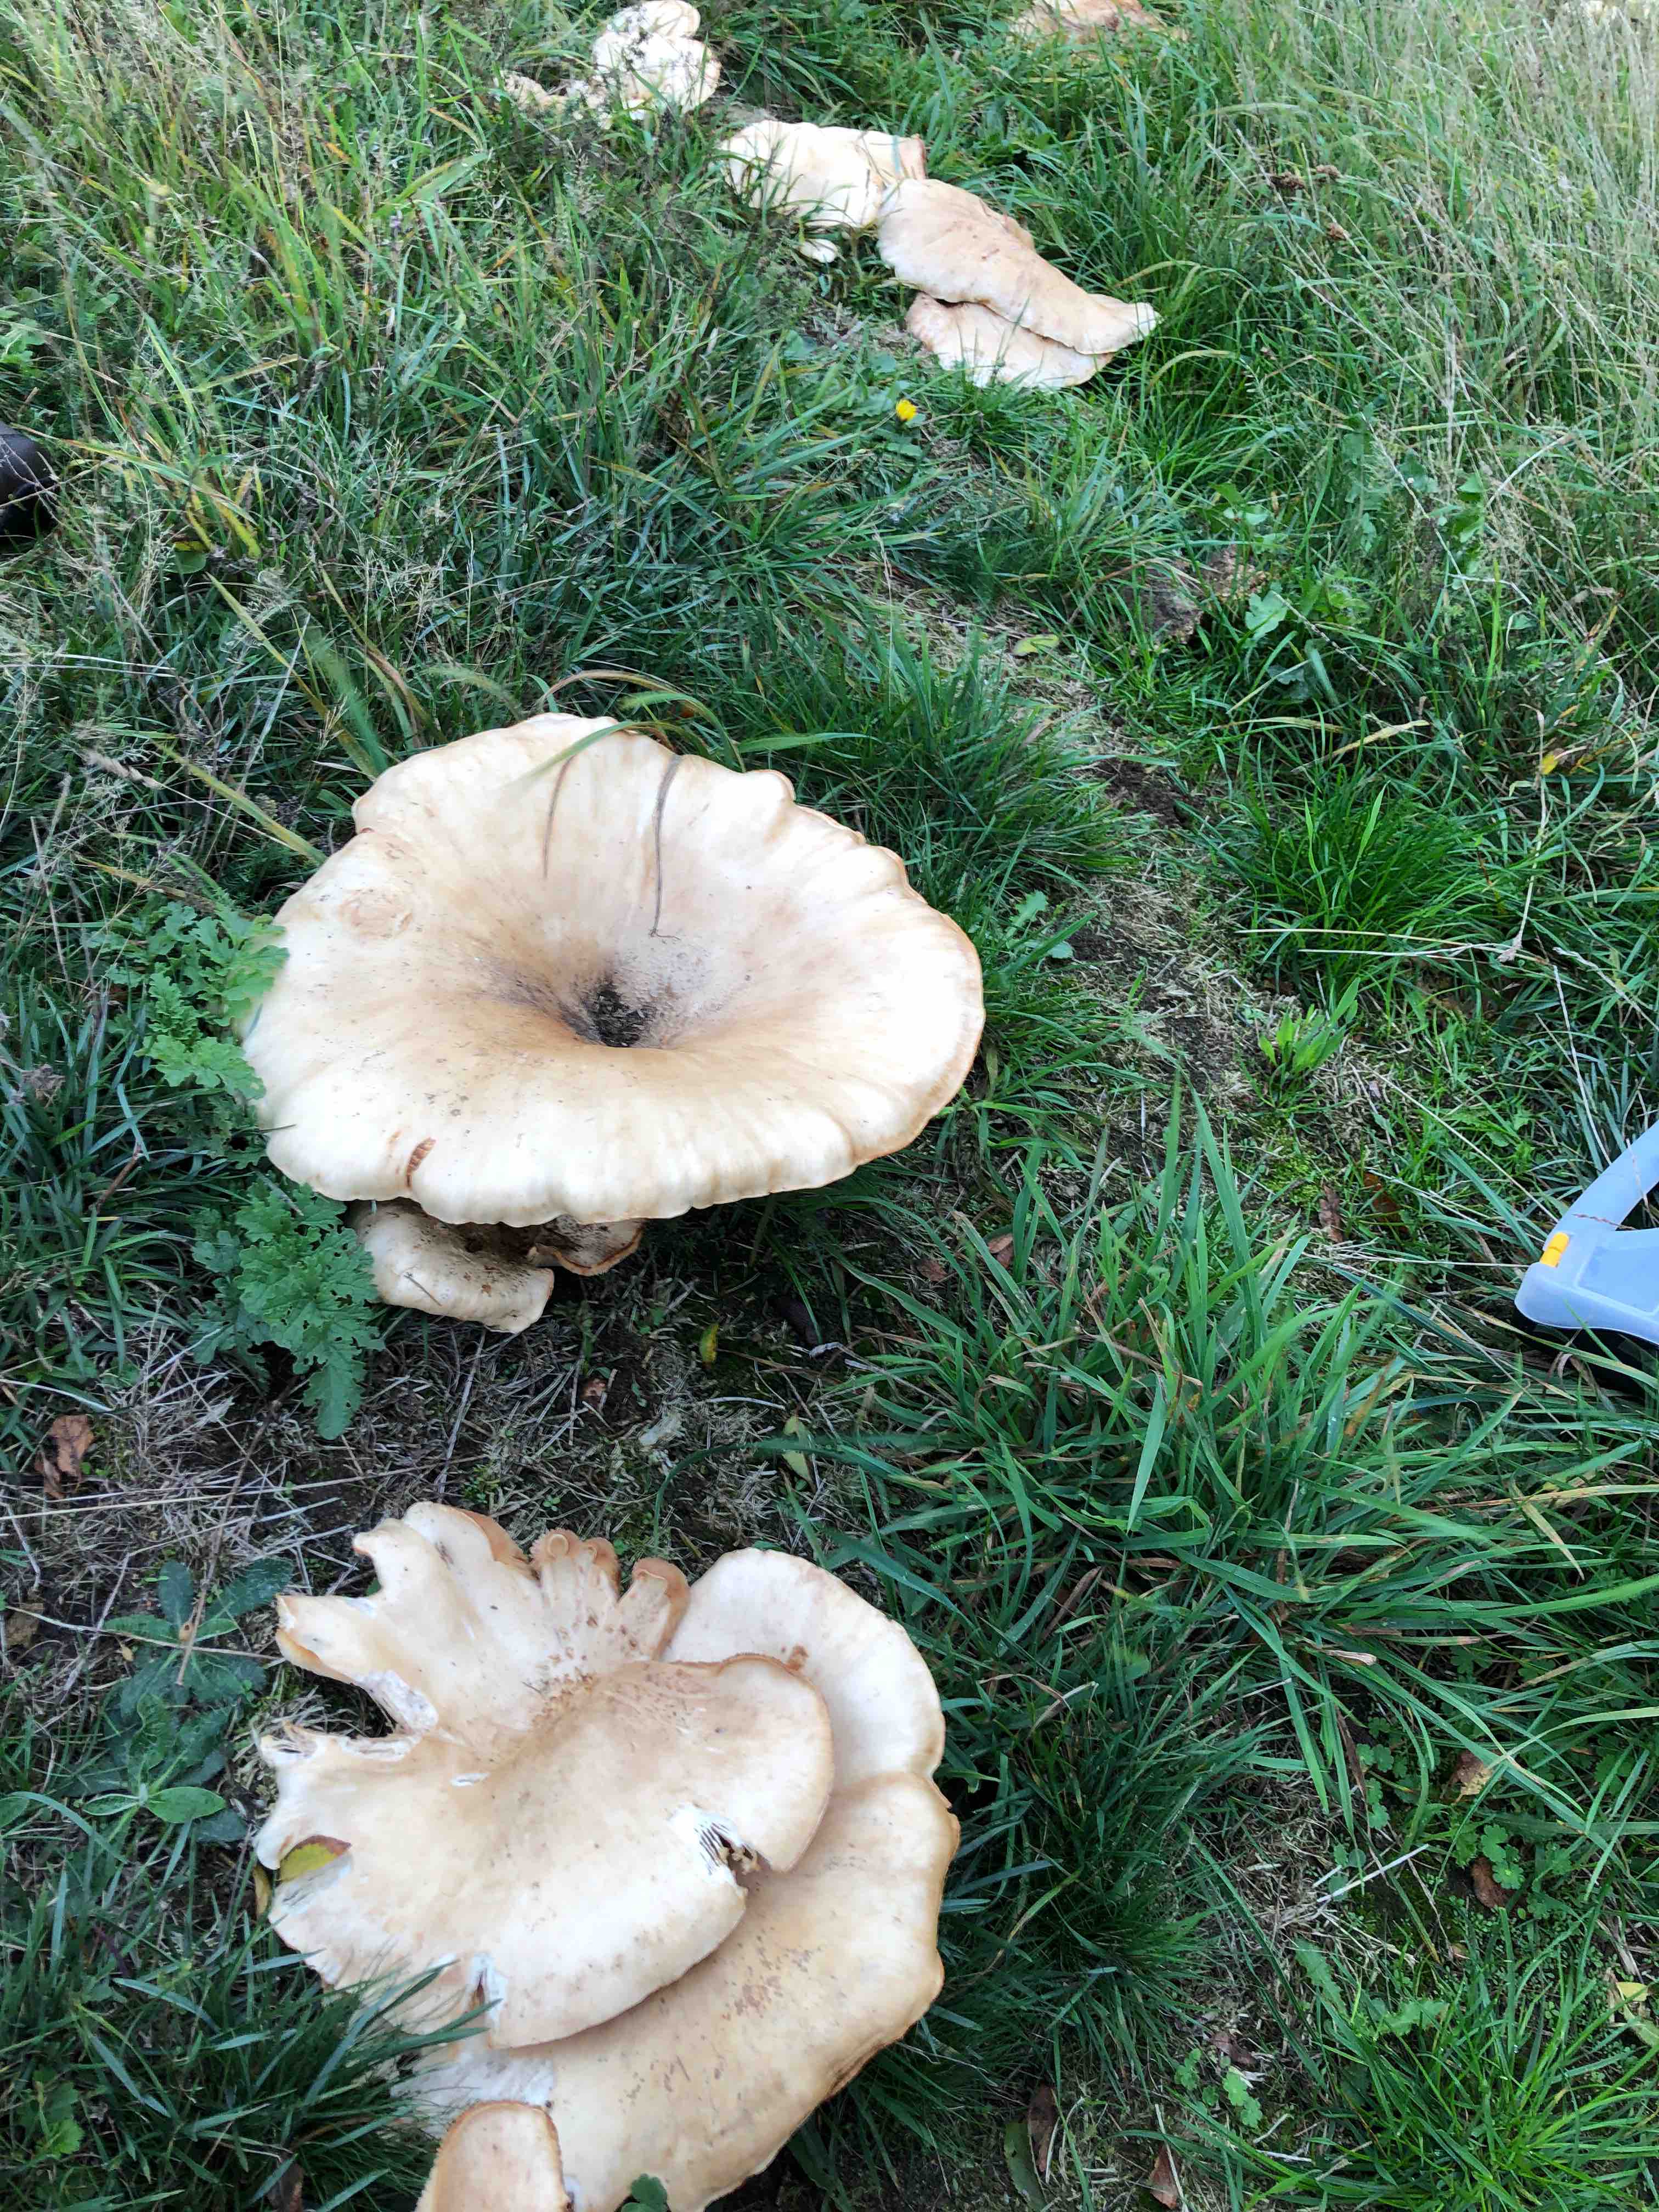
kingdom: Fungi
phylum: Basidiomycota
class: Agaricomycetes
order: Agaricales
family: Tricholomataceae
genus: Aspropaxillus
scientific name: Aspropaxillus giganteus
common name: kæmpe-tragtridderhat
